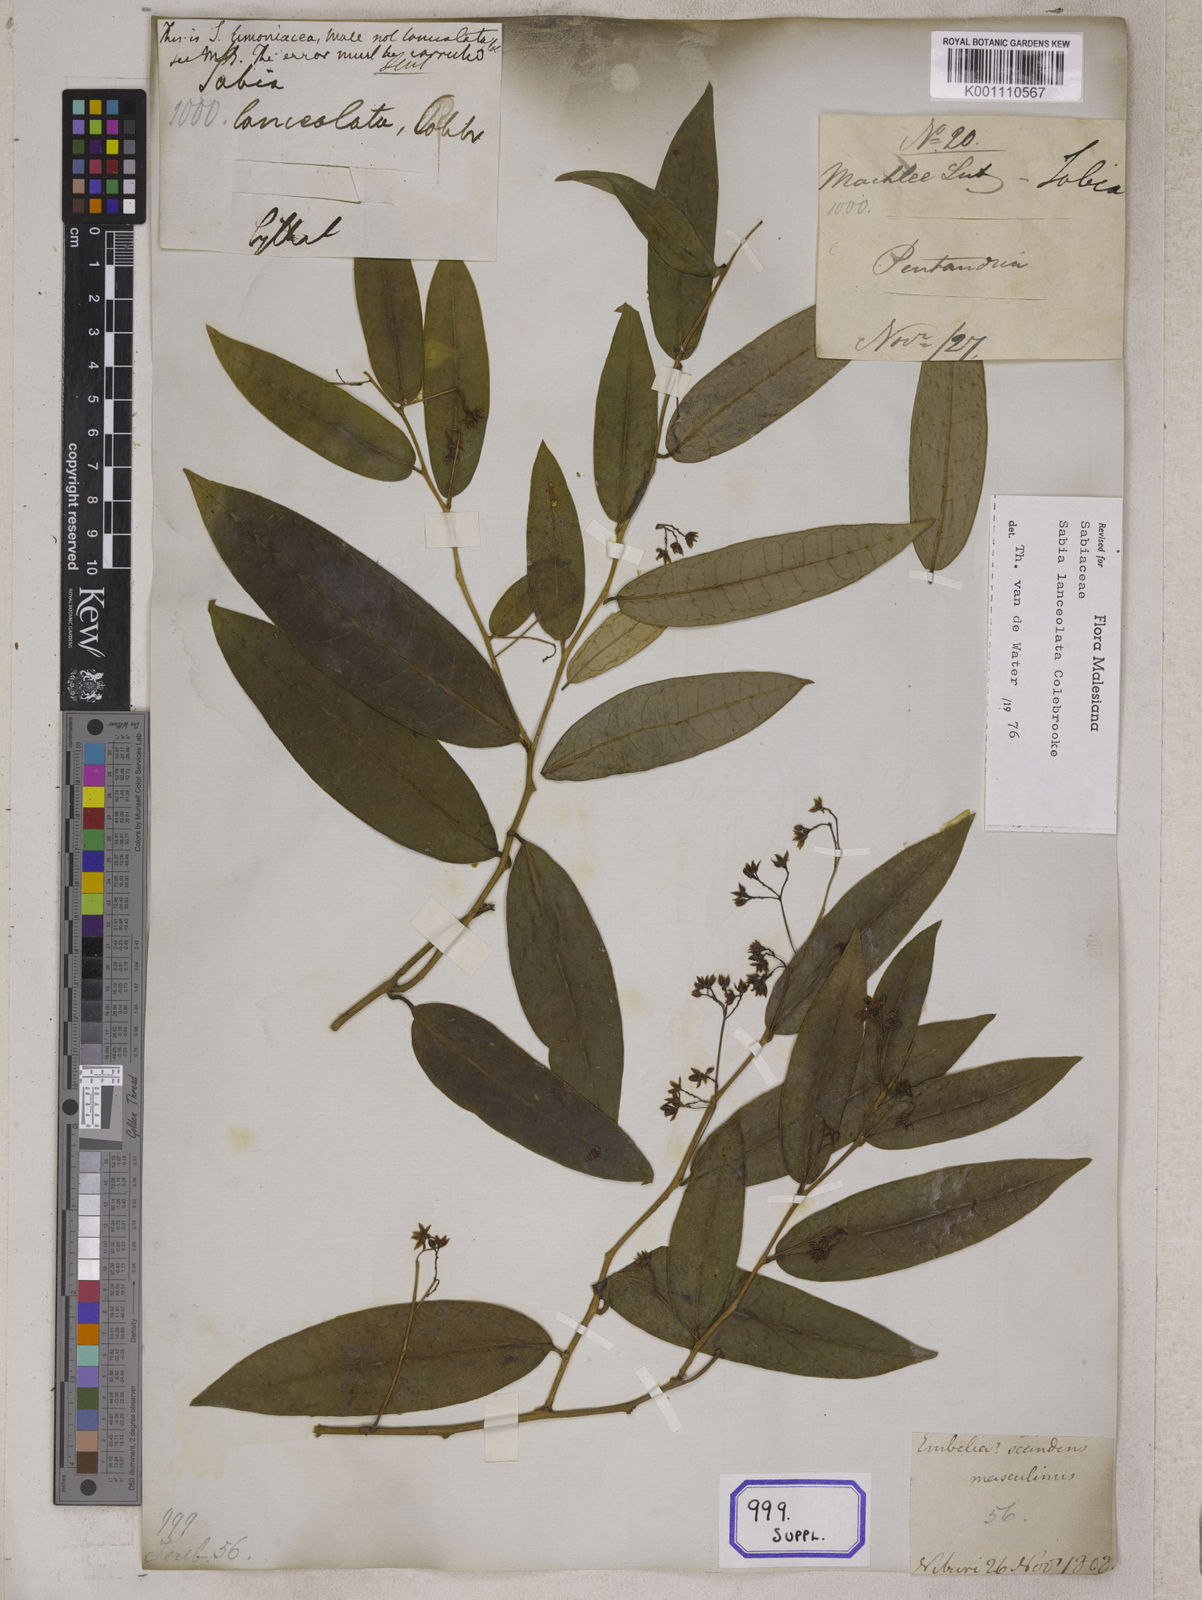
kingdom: Plantae
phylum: Tracheophyta
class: Magnoliopsida
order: Proteales
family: Sabiaceae
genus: Sabia
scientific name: Sabia lanceolata
